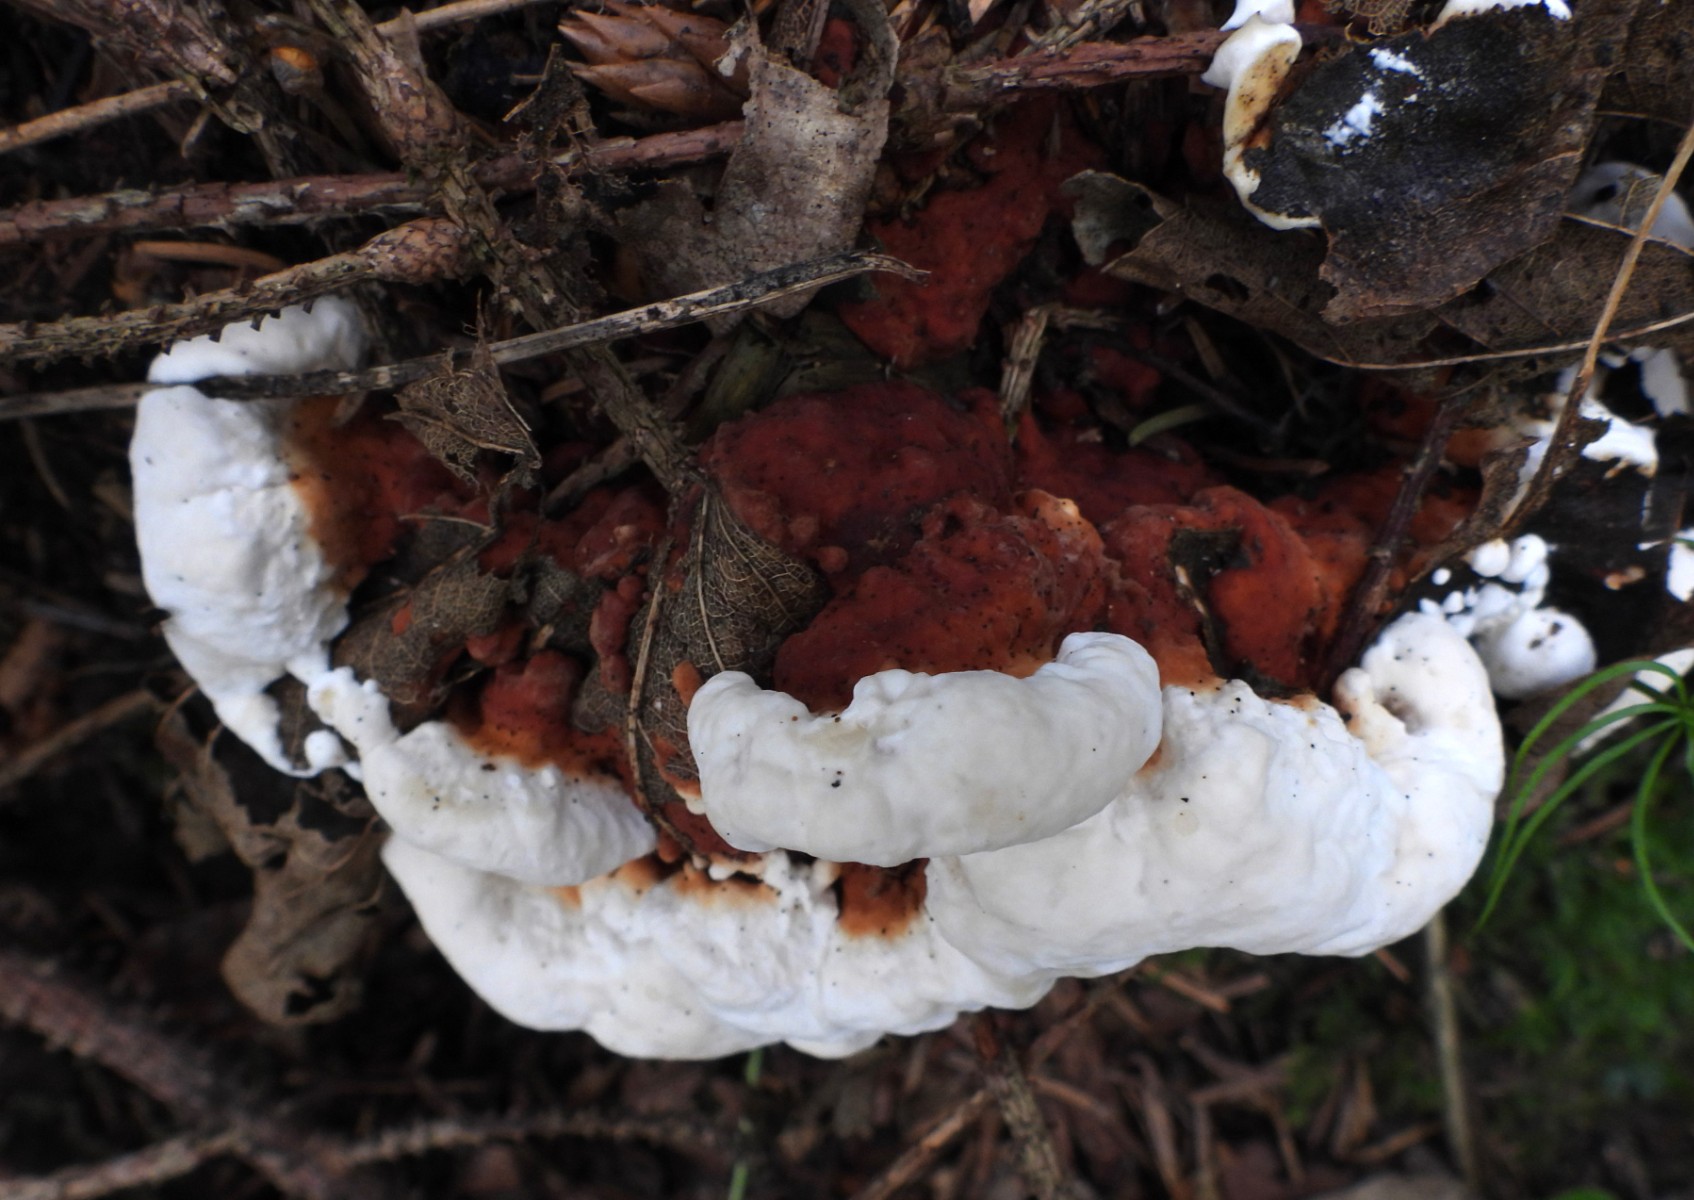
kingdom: Fungi
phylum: Basidiomycota
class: Agaricomycetes
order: Russulales
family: Bondarzewiaceae
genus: Heterobasidion
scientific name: Heterobasidion annosum
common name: almindelig rodfordærver
